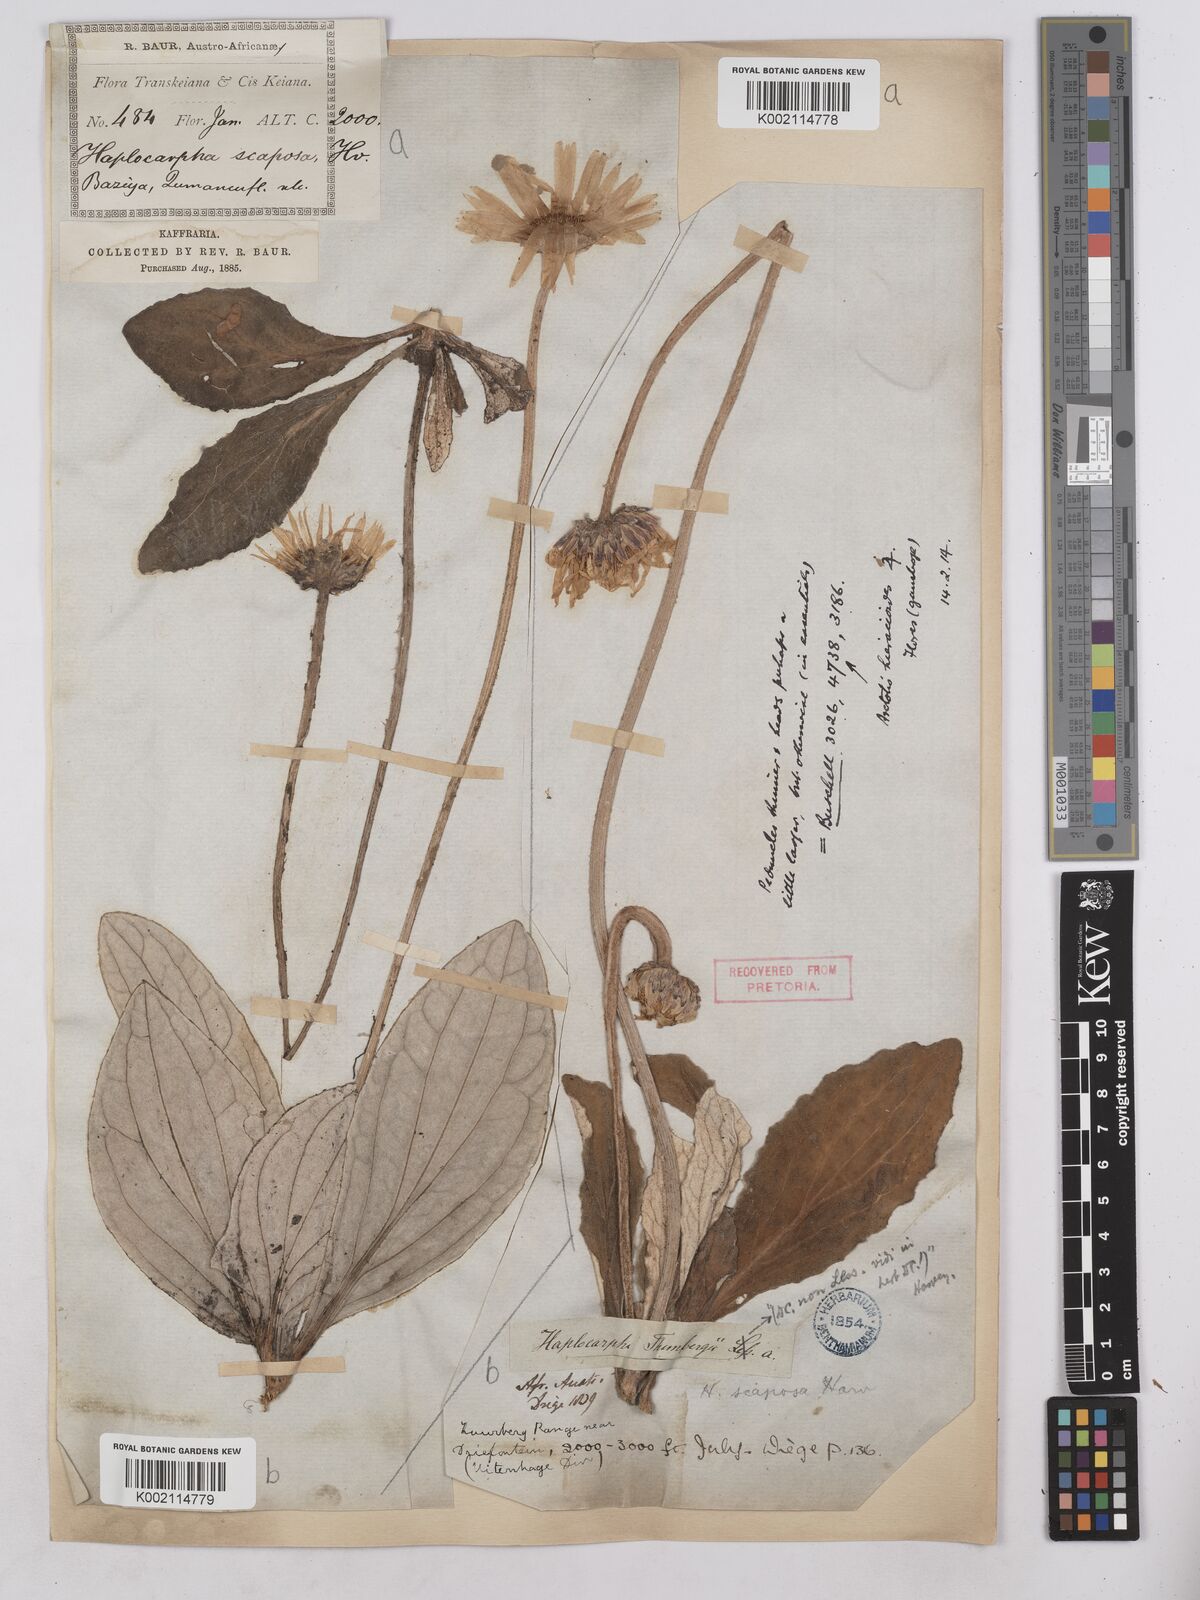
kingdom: Plantae
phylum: Tracheophyta
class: Magnoliopsida
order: Asterales
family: Asteraceae
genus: Haplocarpha
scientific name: Haplocarpha scaposa
